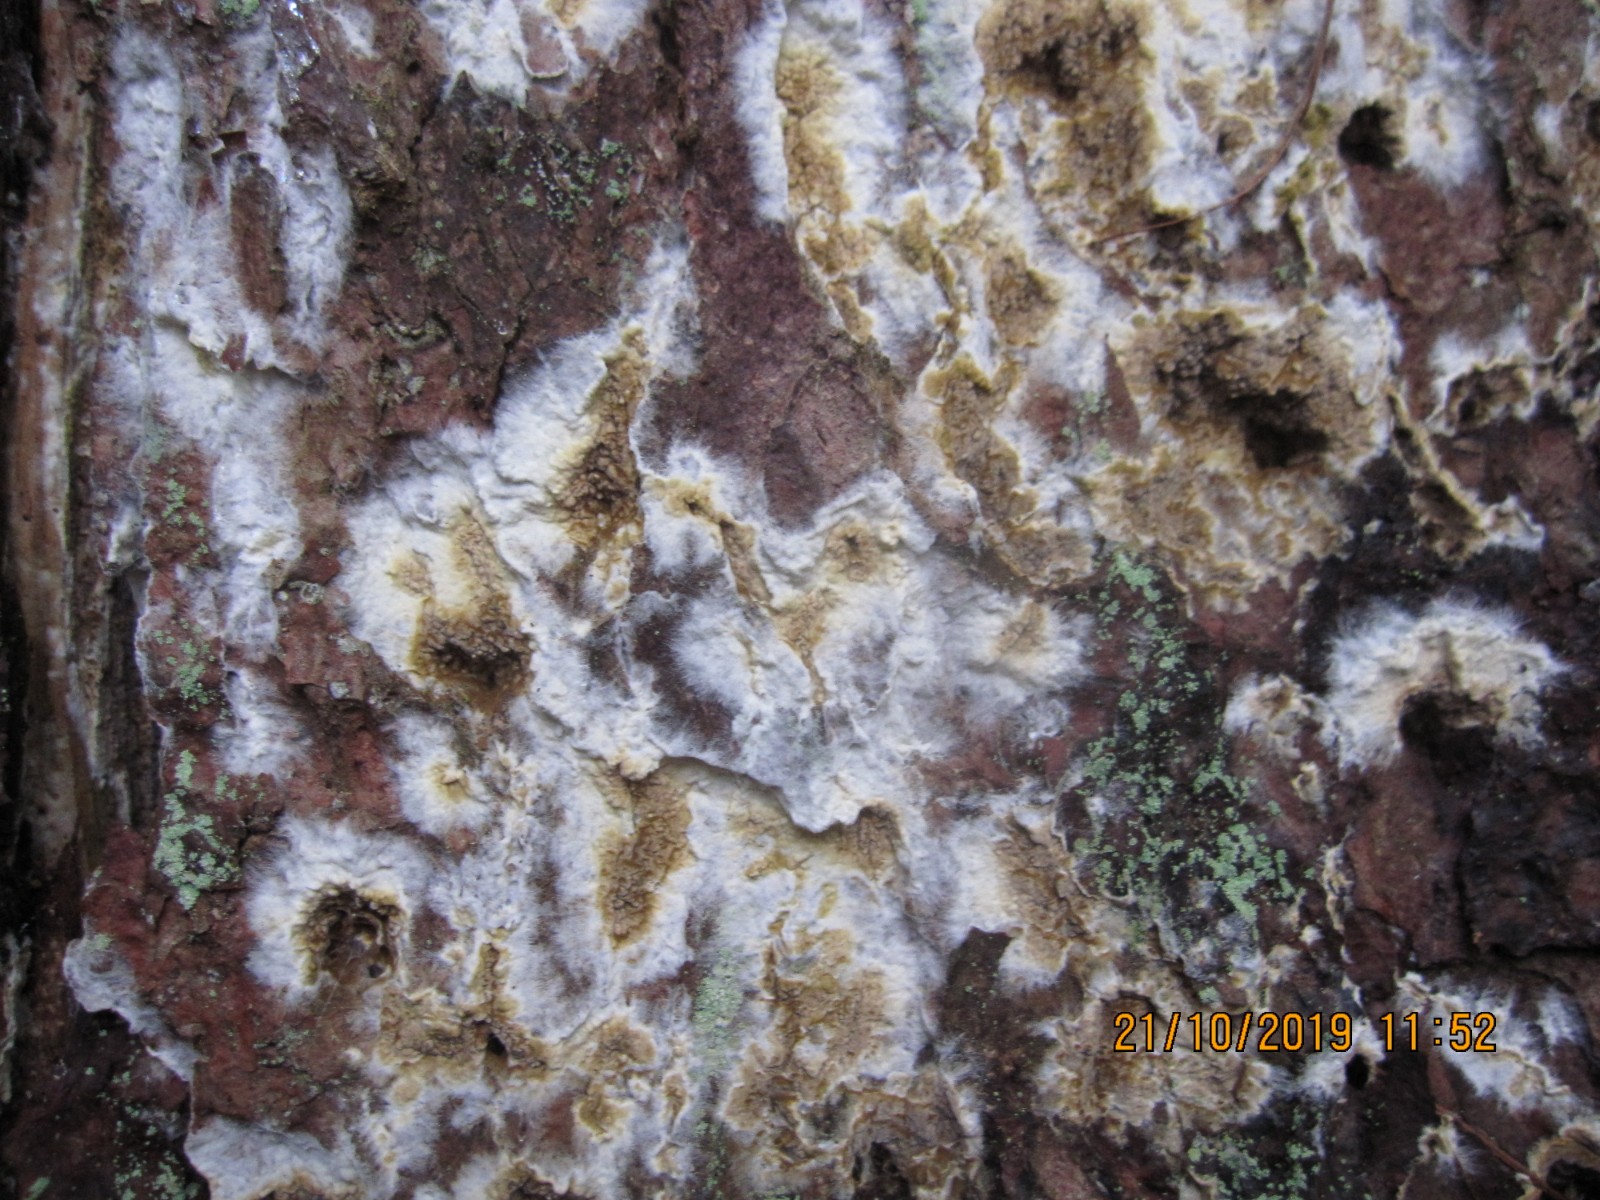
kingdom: Fungi
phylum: Basidiomycota
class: Agaricomycetes
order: Boletales
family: Coniophoraceae
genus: Coniophora
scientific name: Coniophora puteana
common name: gul tømmersvamp
